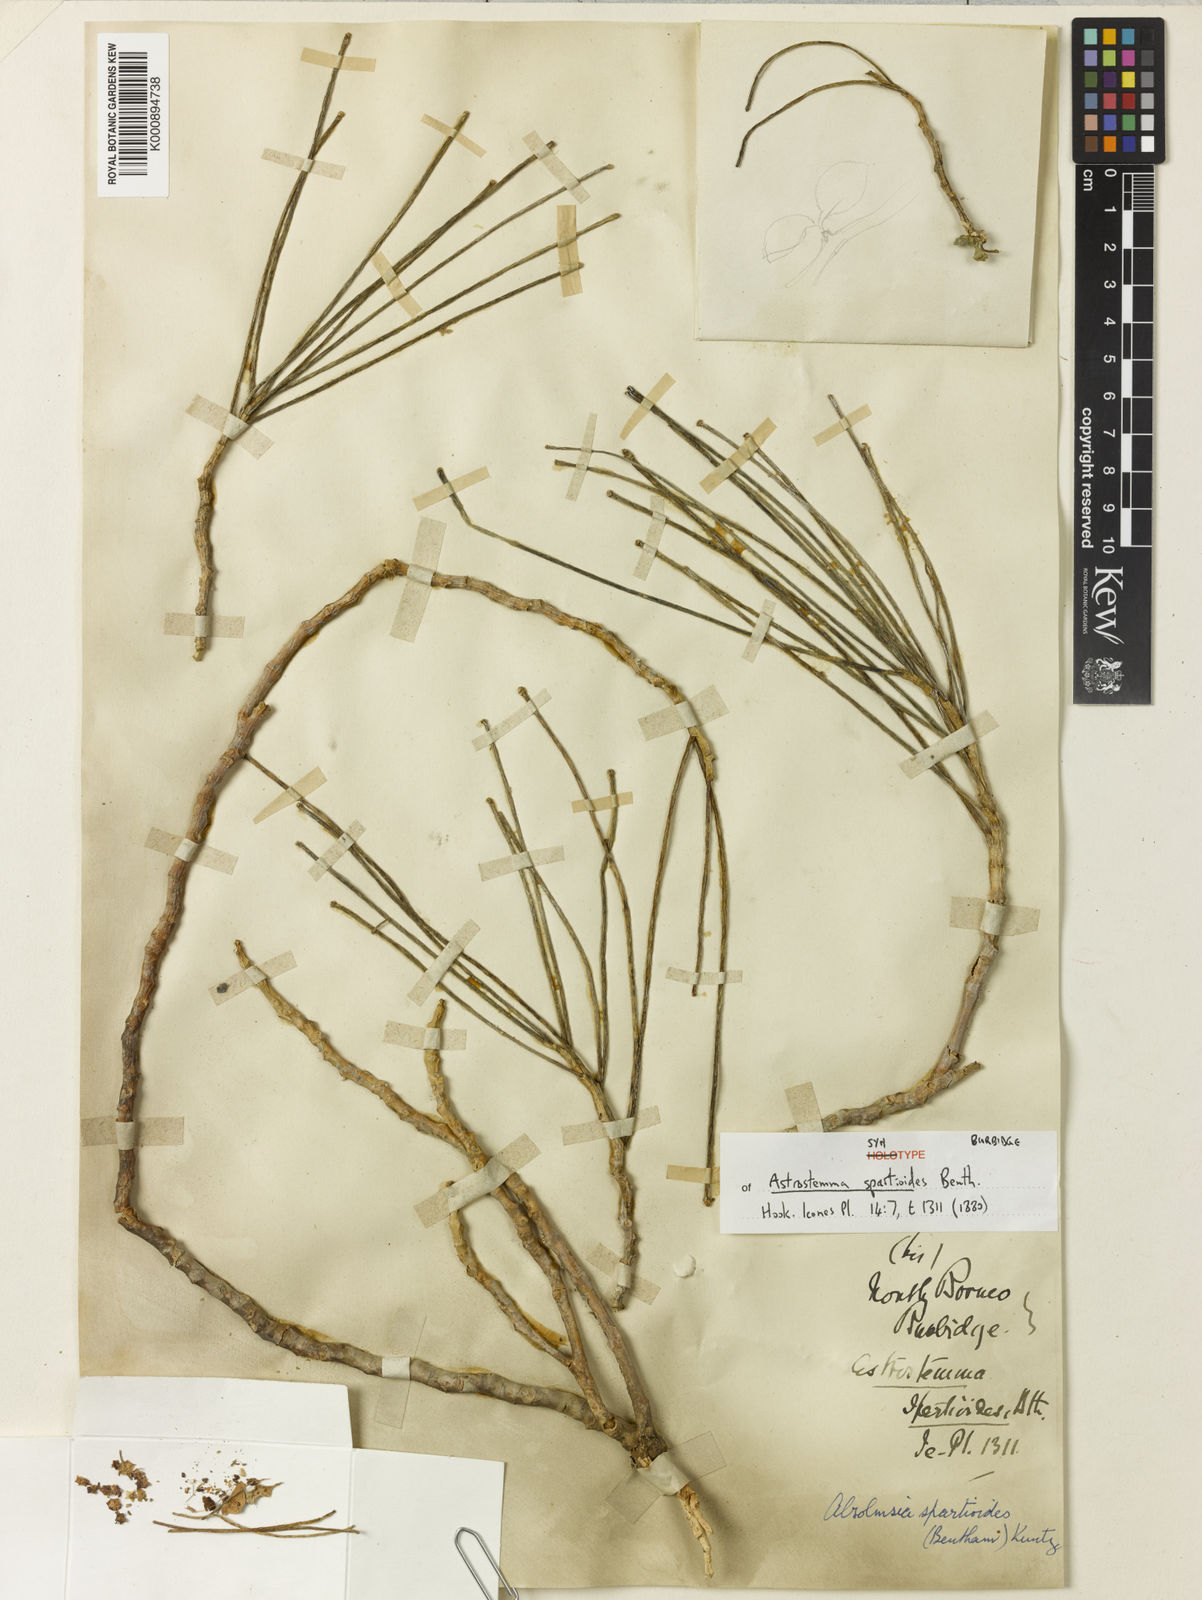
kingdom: Plantae
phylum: Tracheophyta
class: Magnoliopsida
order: Gentianales
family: Apocynaceae
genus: Hoya
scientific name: Hoya spartioides
